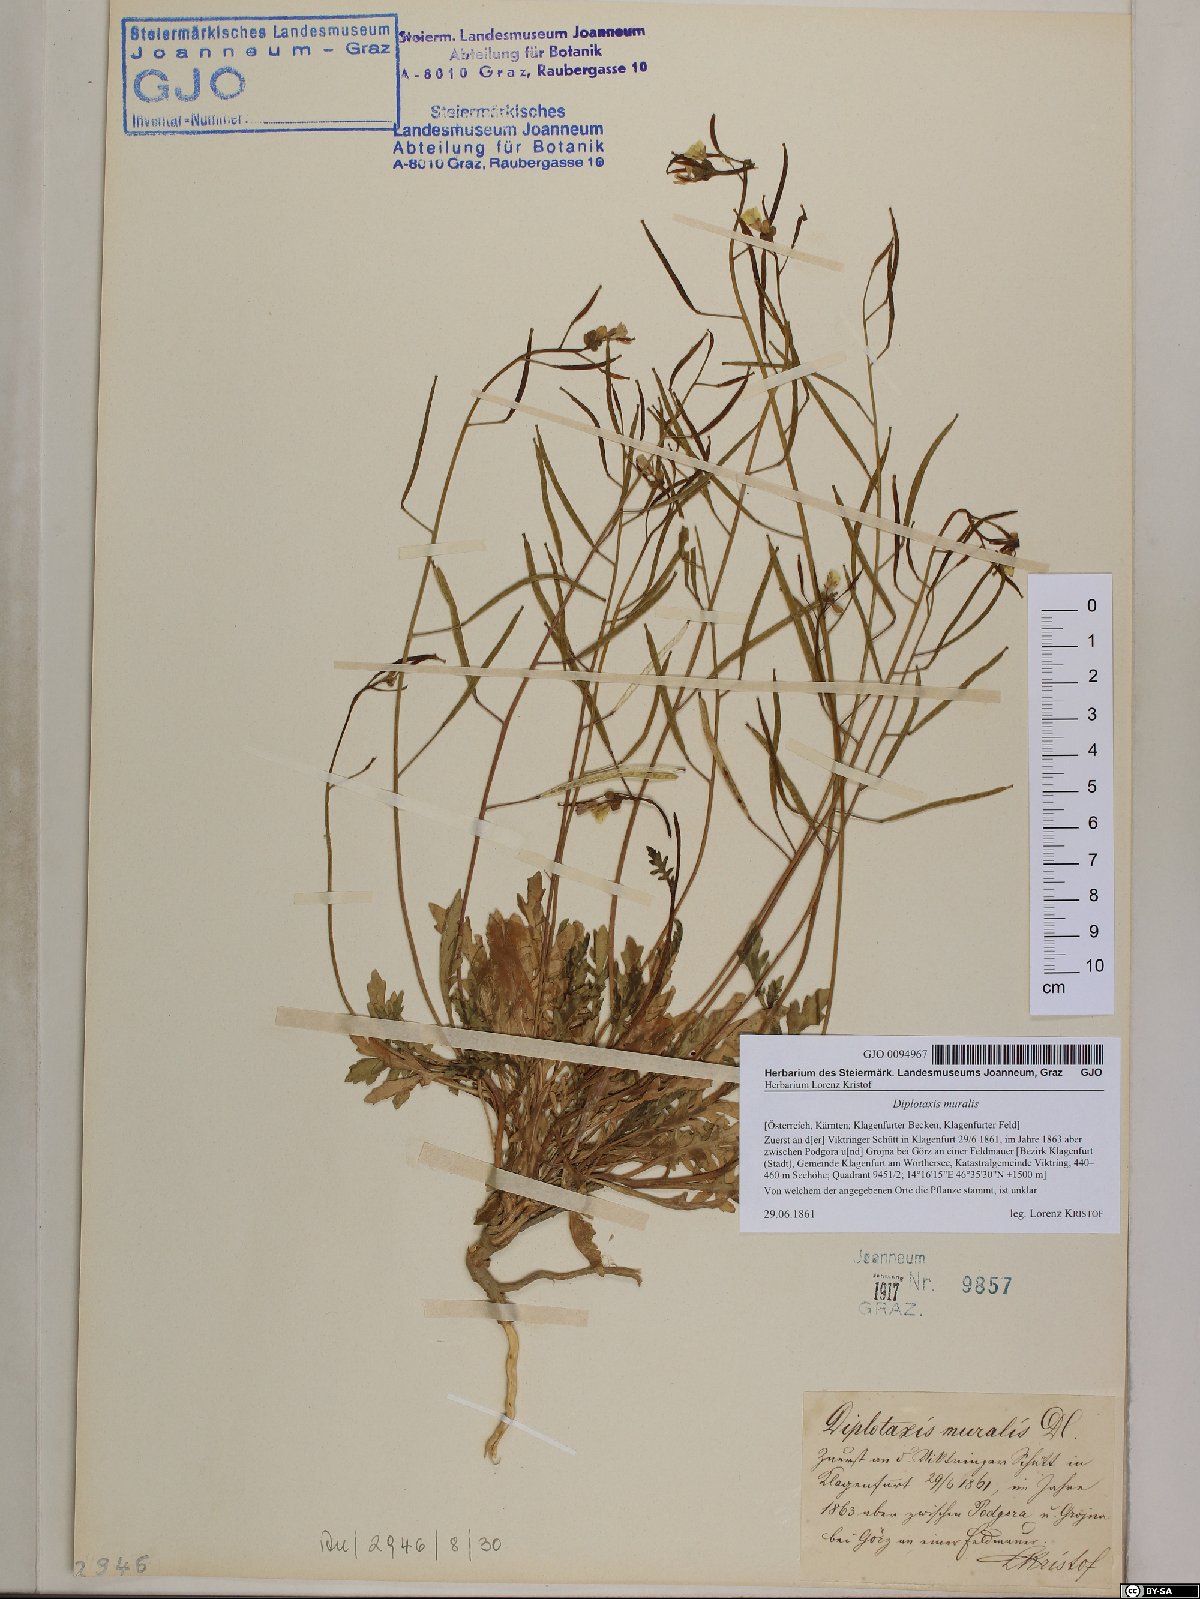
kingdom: Plantae
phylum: Tracheophyta
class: Magnoliopsida
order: Brassicales
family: Brassicaceae
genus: Diplotaxis
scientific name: Diplotaxis muralis
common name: Annual wall-rocket
